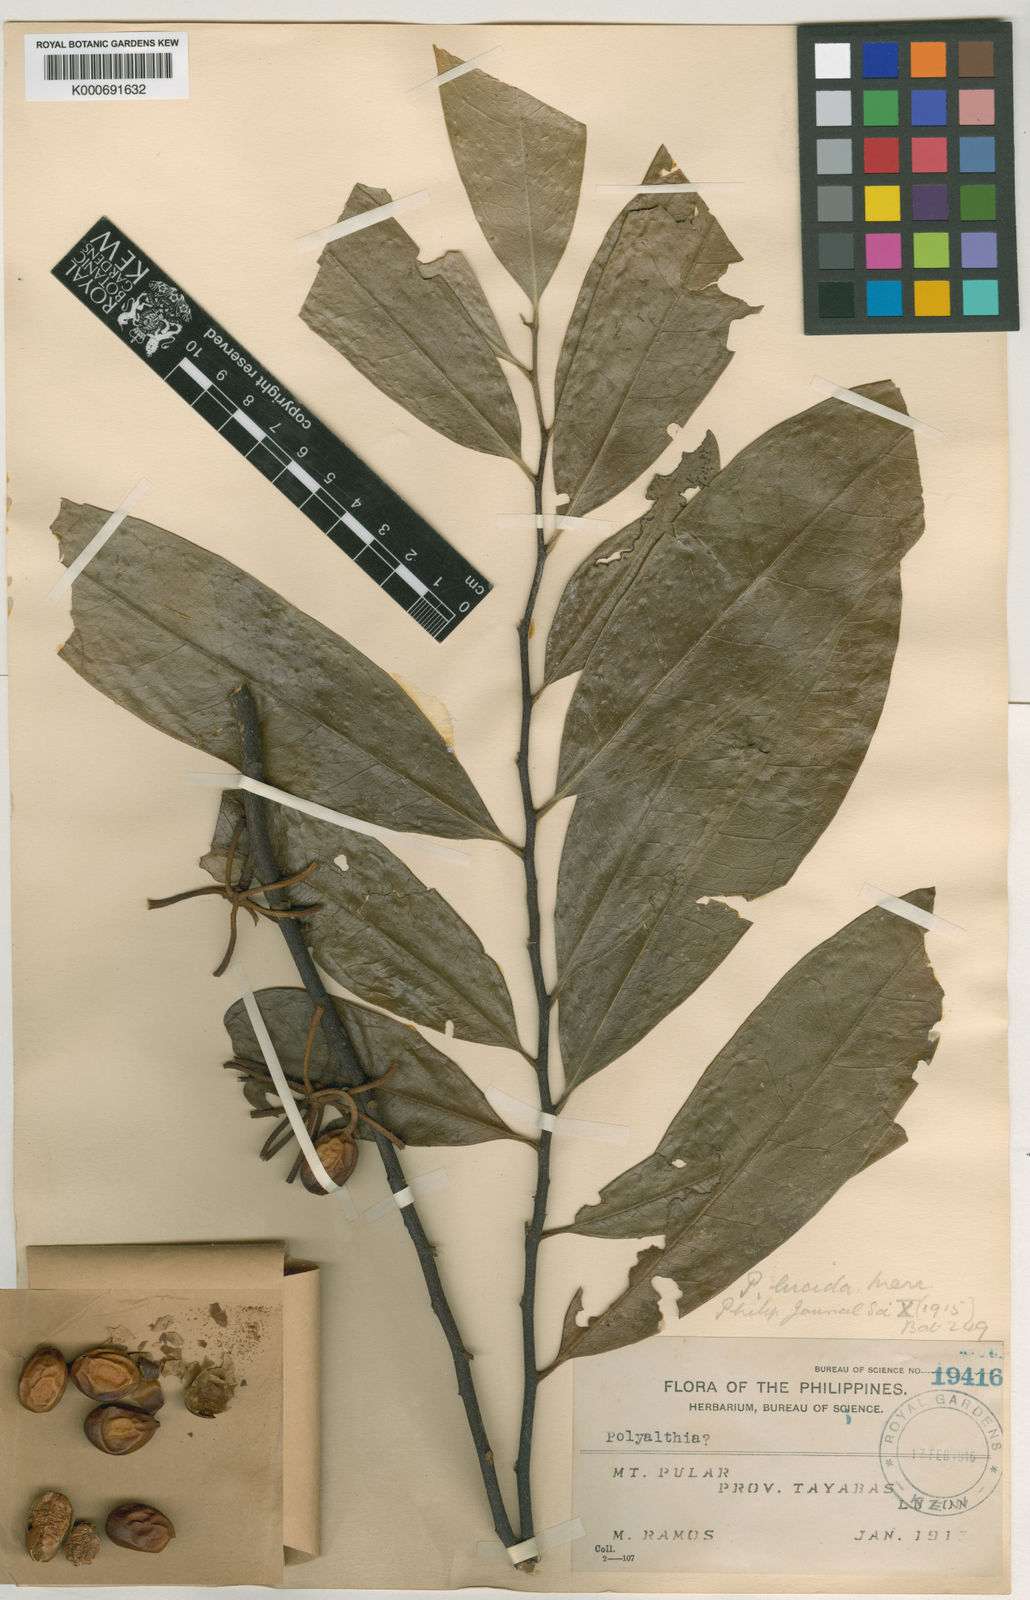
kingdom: Plantae
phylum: Tracheophyta
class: Magnoliopsida
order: Magnoliales
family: Annonaceae
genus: Marsypopetalum
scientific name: Marsypopetalum lucidum
